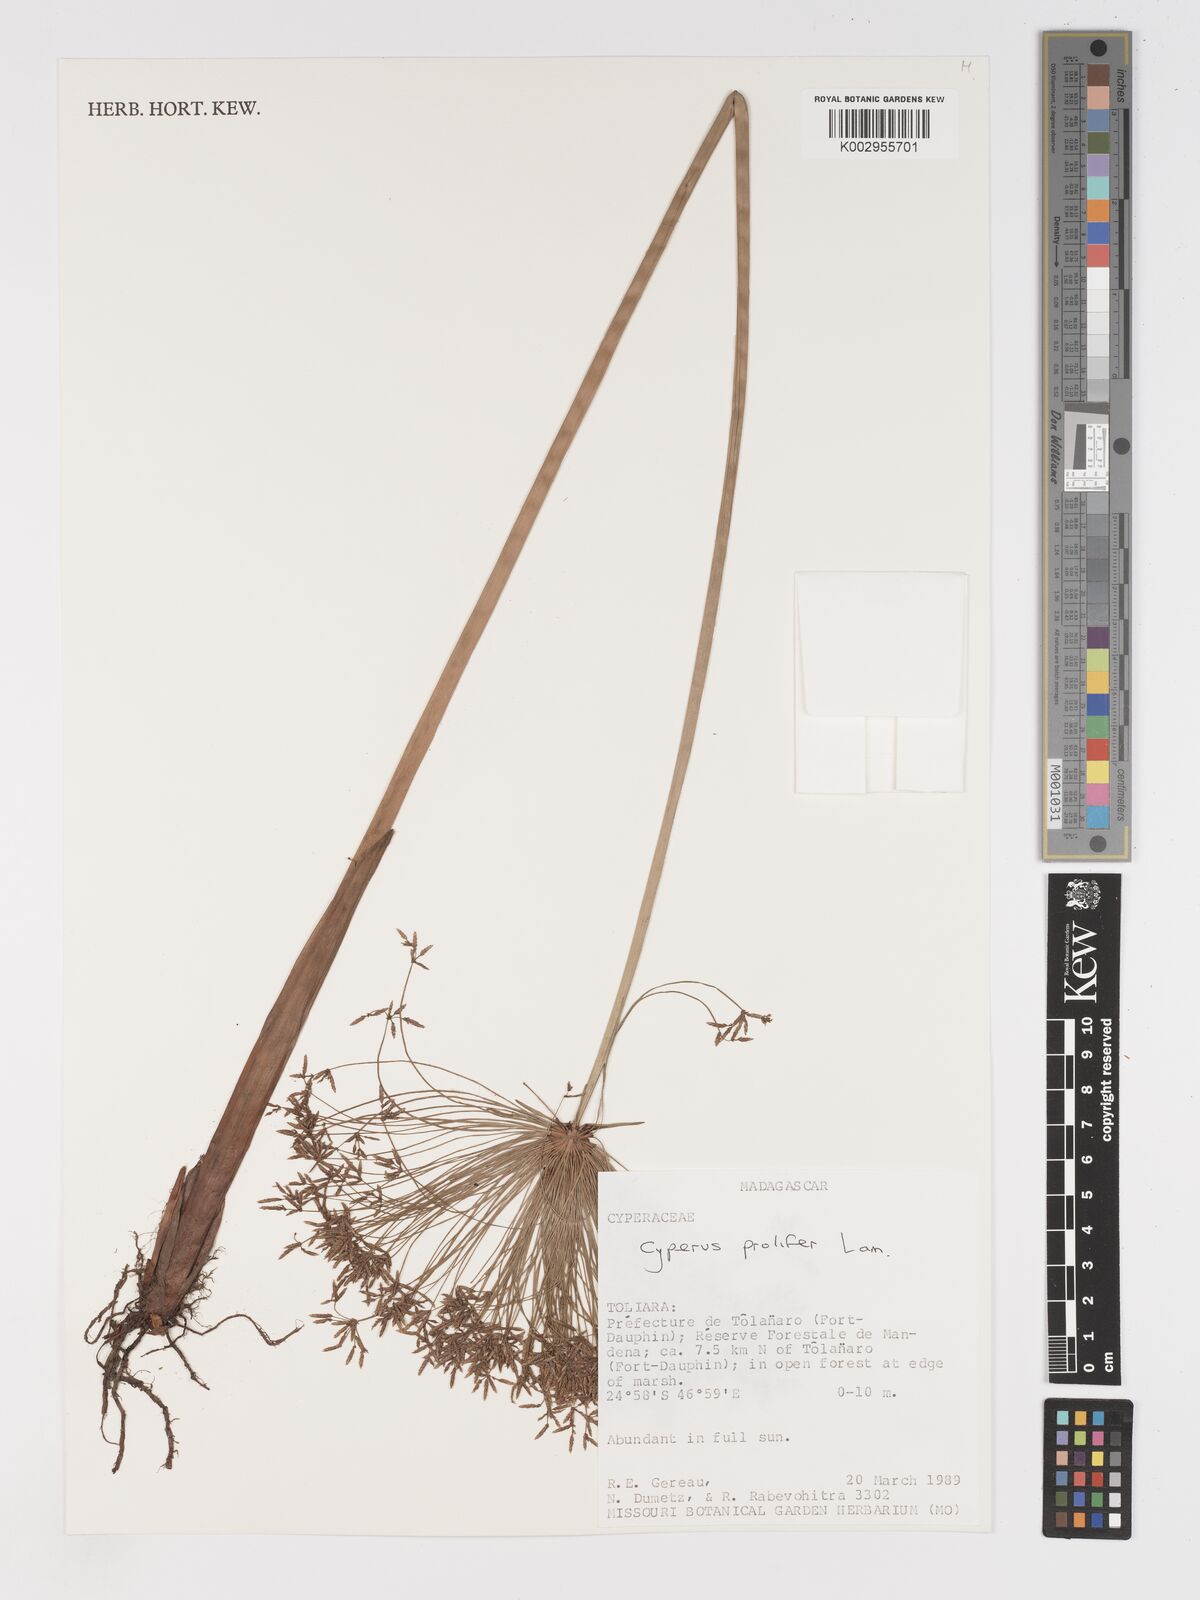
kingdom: Plantae
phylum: Tracheophyta
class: Liliopsida
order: Poales
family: Cyperaceae
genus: Cyperus
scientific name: Cyperus prolifer
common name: Miniature flatsedge
